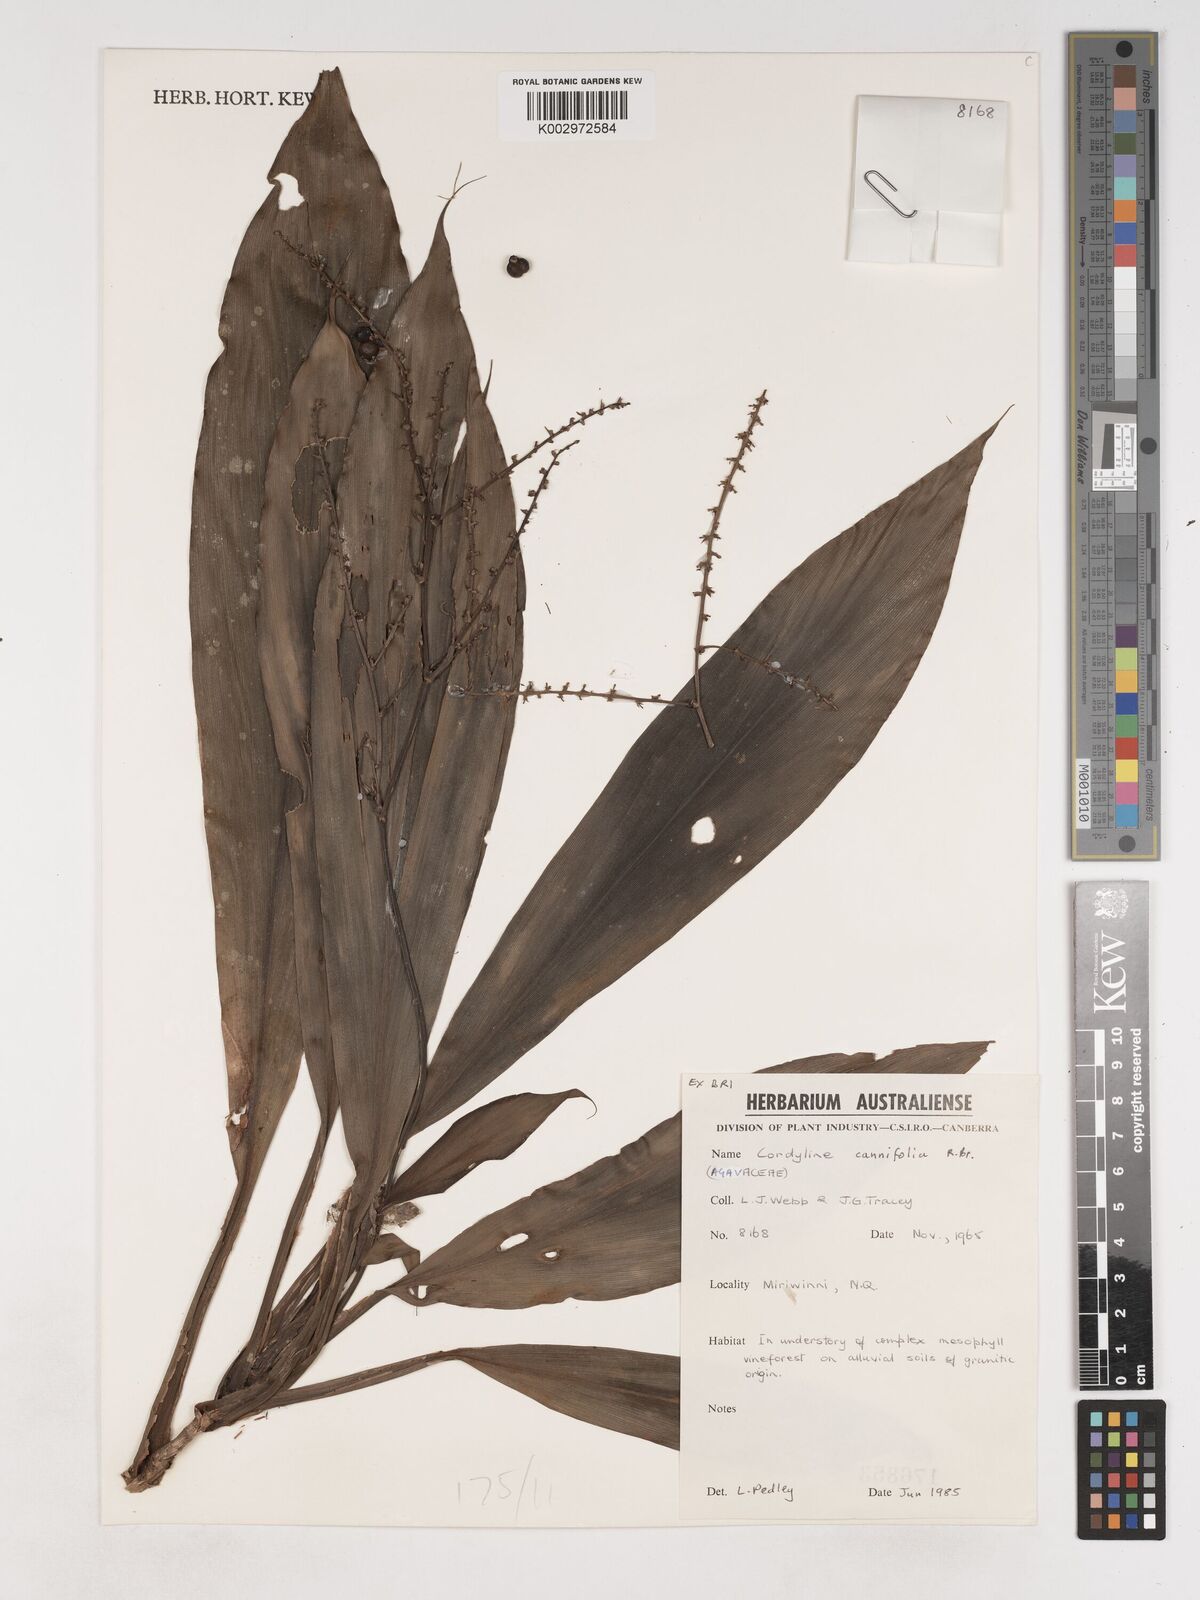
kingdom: Plantae
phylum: Tracheophyta
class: Liliopsida
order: Asparagales
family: Asparagaceae
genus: Cordyline
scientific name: Cordyline fruticosa
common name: Good-luck-plant
